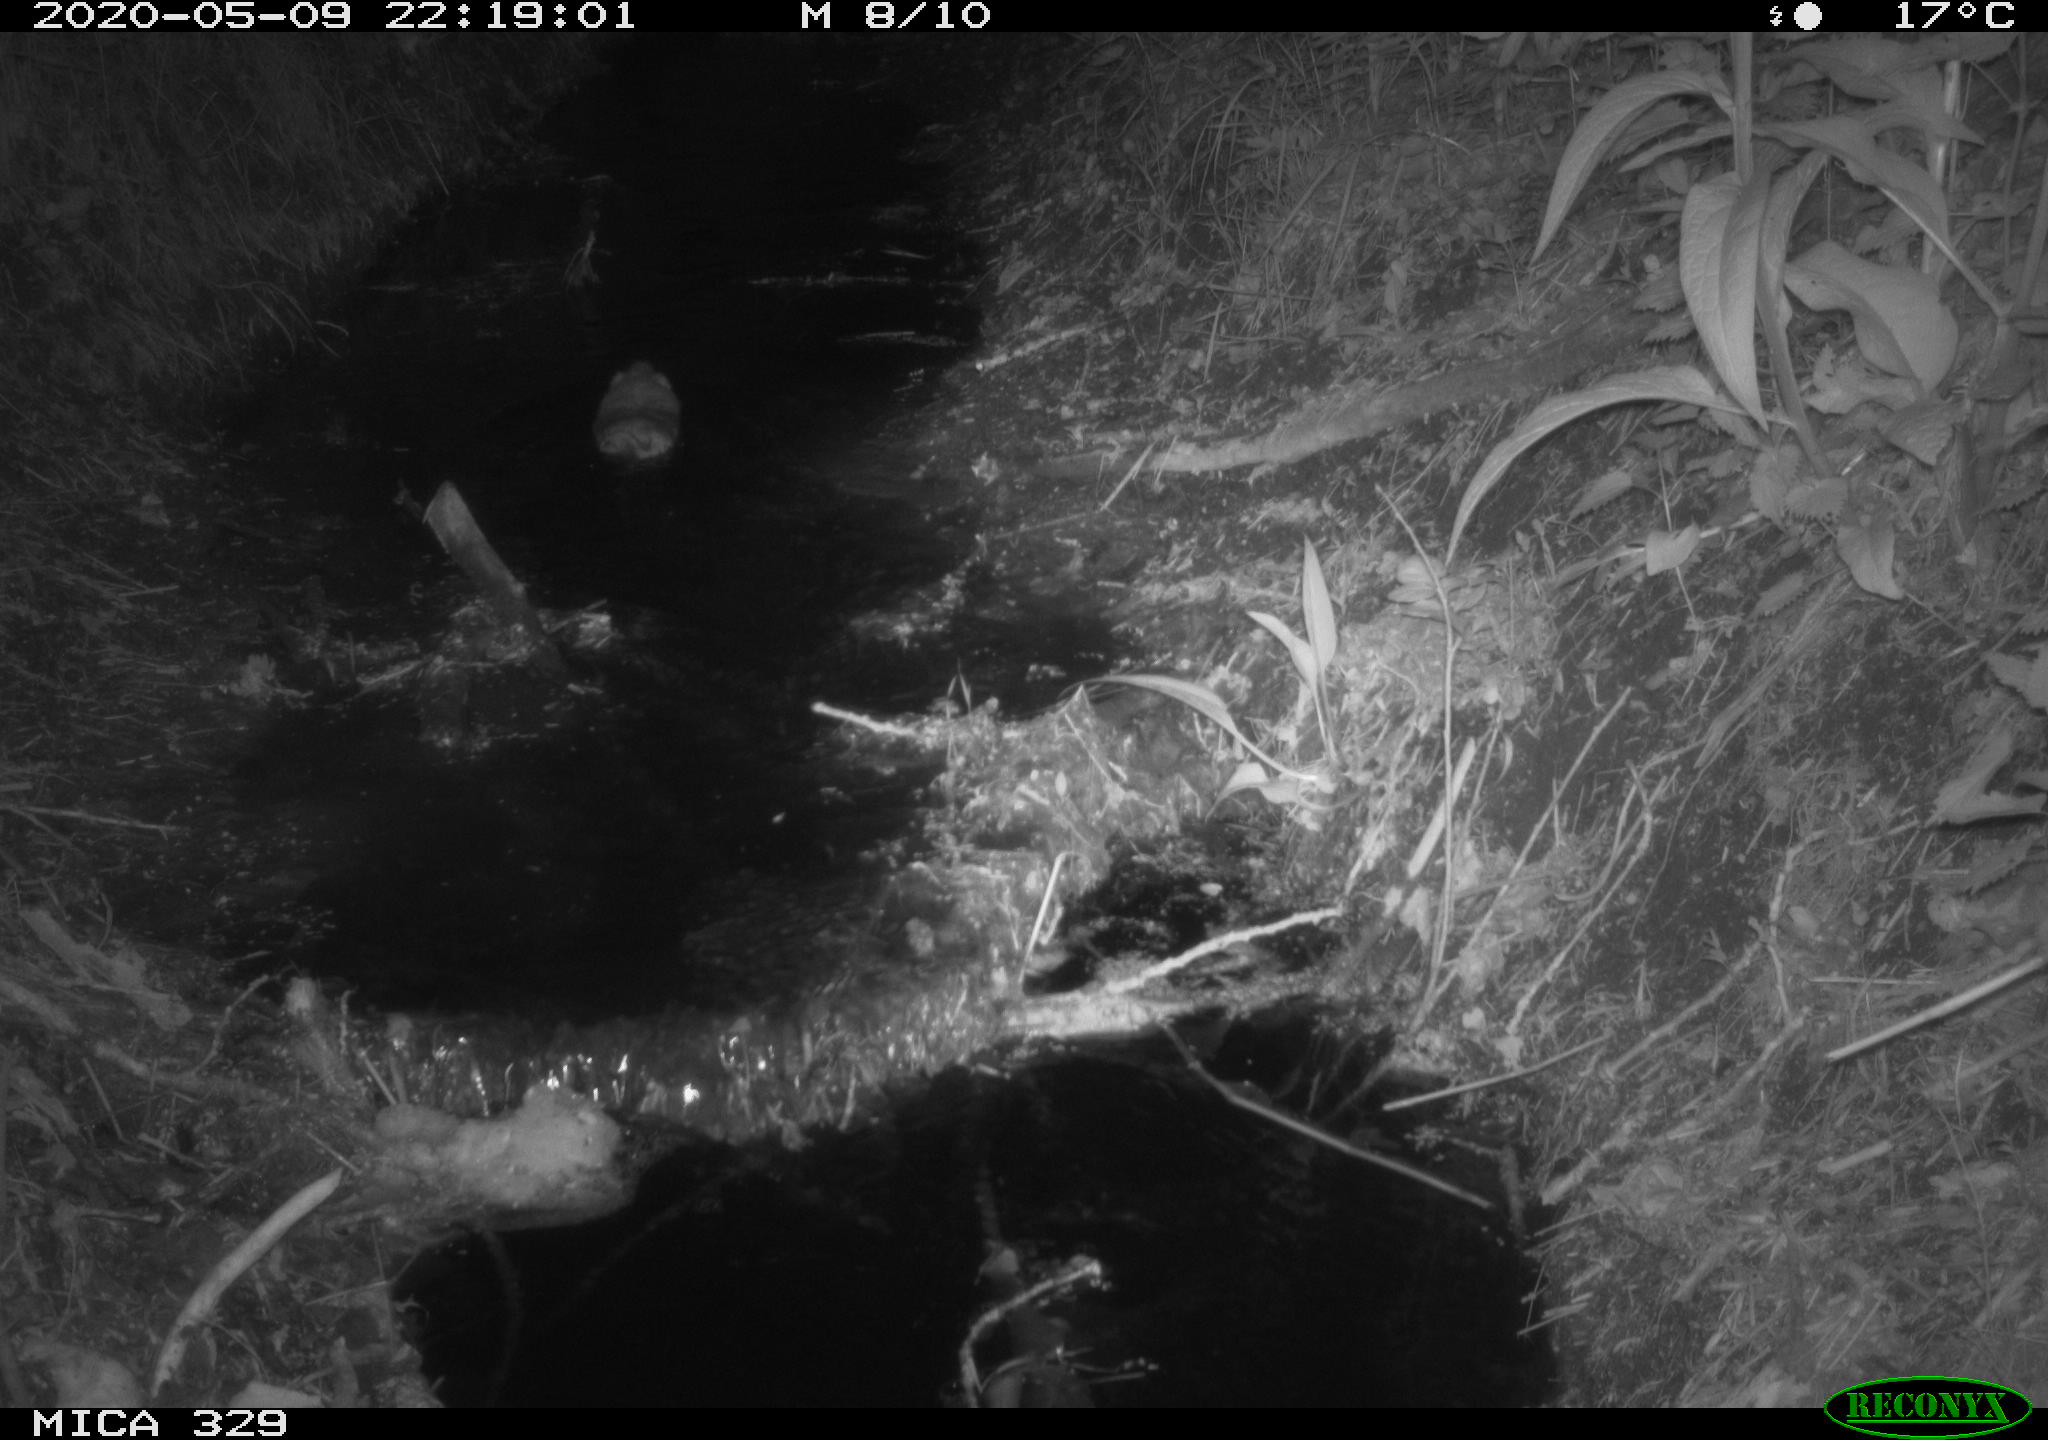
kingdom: Animalia
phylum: Chordata
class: Mammalia
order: Rodentia
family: Cricetidae
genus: Ondatra
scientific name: Ondatra zibethicus
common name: Muskrat
